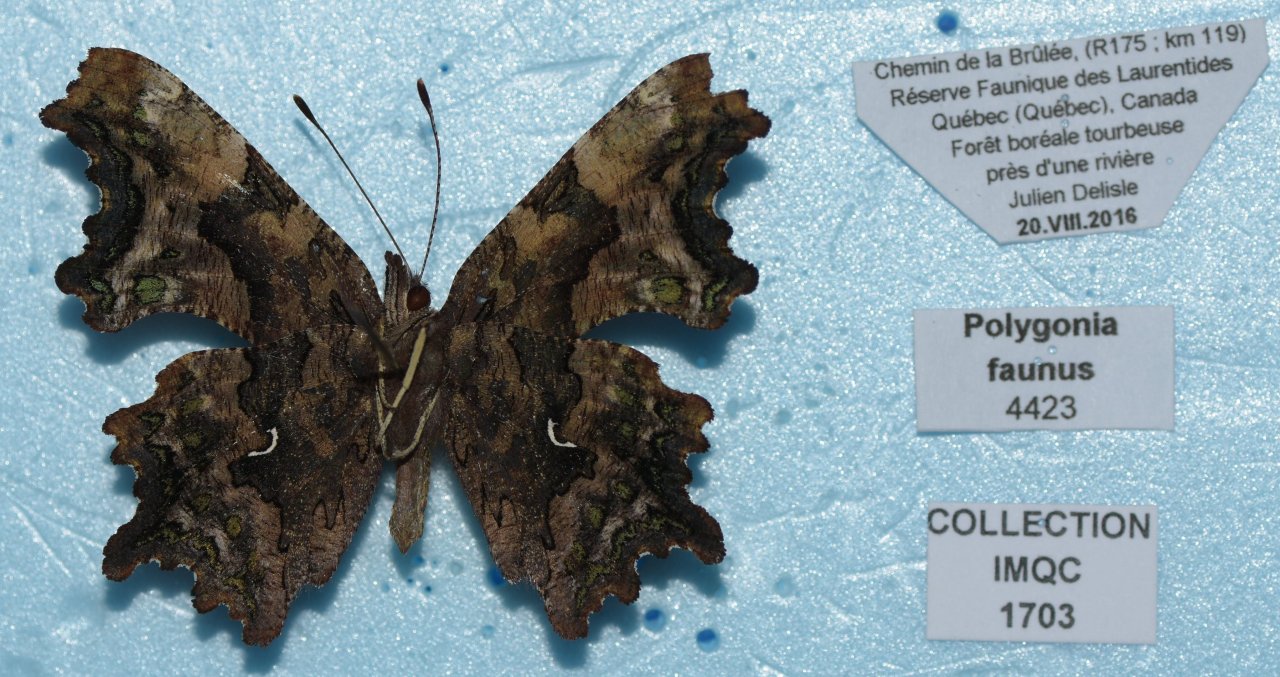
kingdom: Animalia
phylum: Arthropoda
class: Insecta
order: Lepidoptera
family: Nymphalidae
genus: Polygonia
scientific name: Polygonia faunus
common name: Green Comma
